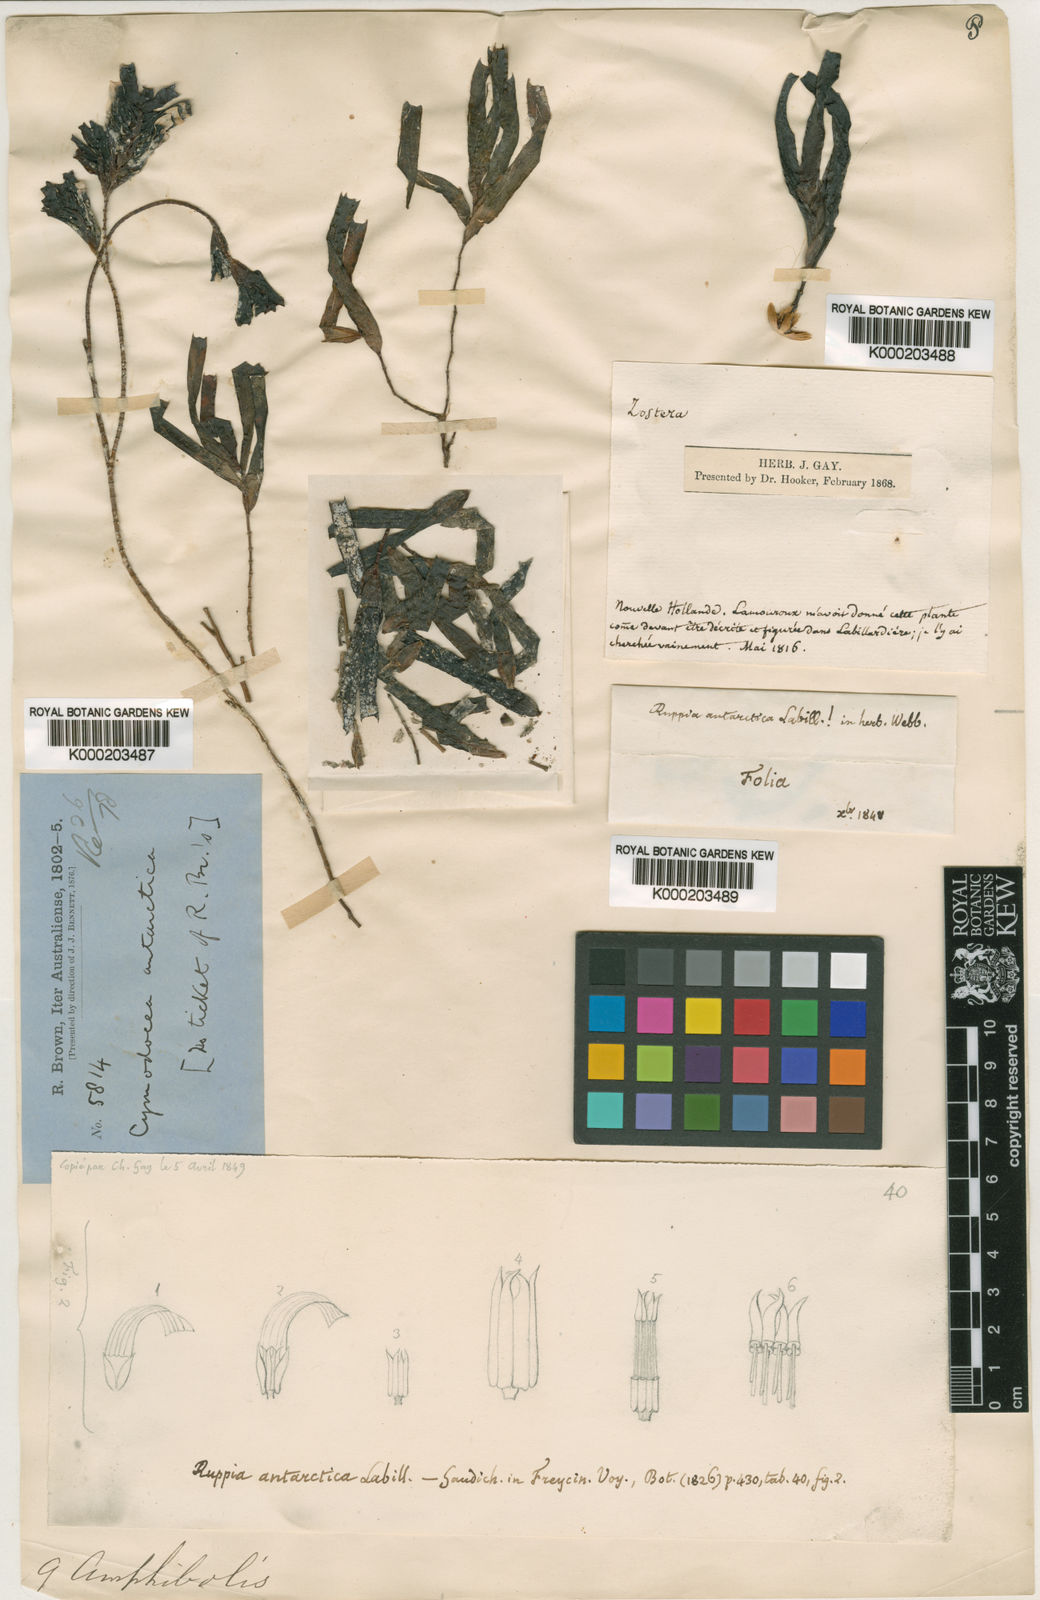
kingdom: Plantae
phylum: Tracheophyta
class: Liliopsida
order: Alismatales
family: Cymodoceaceae
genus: Amphibolis
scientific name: Amphibolis antarctica
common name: Species code: aa
